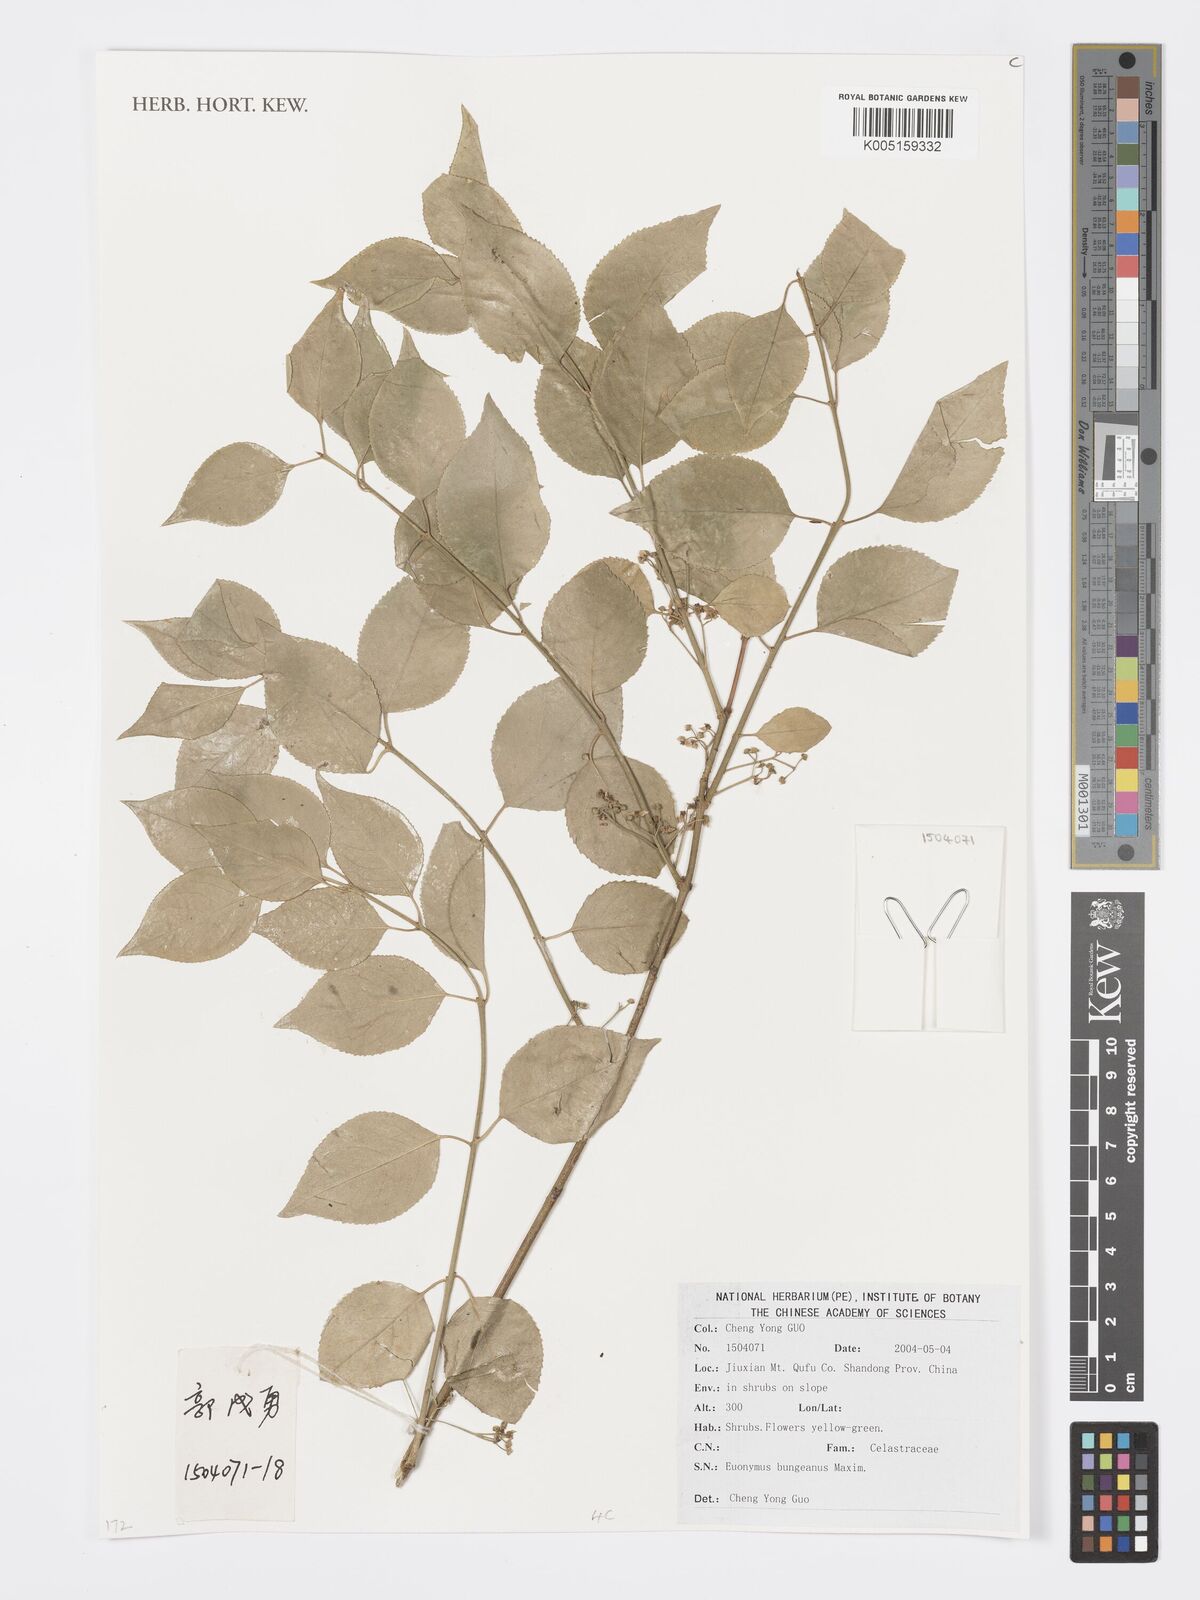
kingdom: Plantae
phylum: Tracheophyta
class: Magnoliopsida
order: Celastrales
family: Celastraceae
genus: Euonymus
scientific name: Euonymus maackii
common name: Hamilton's spindletree
